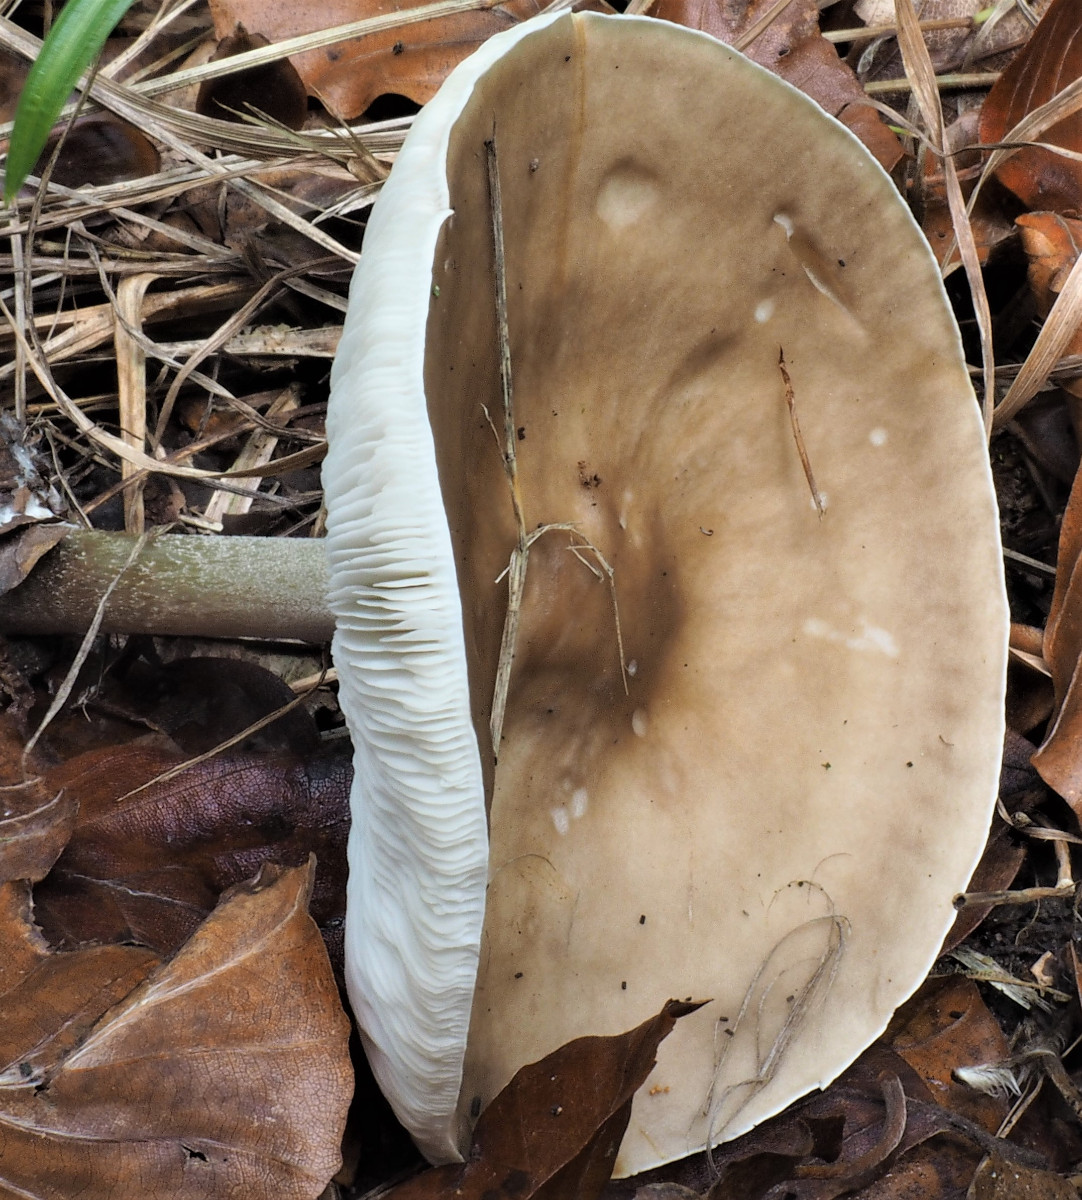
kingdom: Fungi
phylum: Basidiomycota
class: Agaricomycetes
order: Agaricales
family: Tricholomataceae
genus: Melanoleuca
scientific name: Melanoleuca
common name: munkehat
